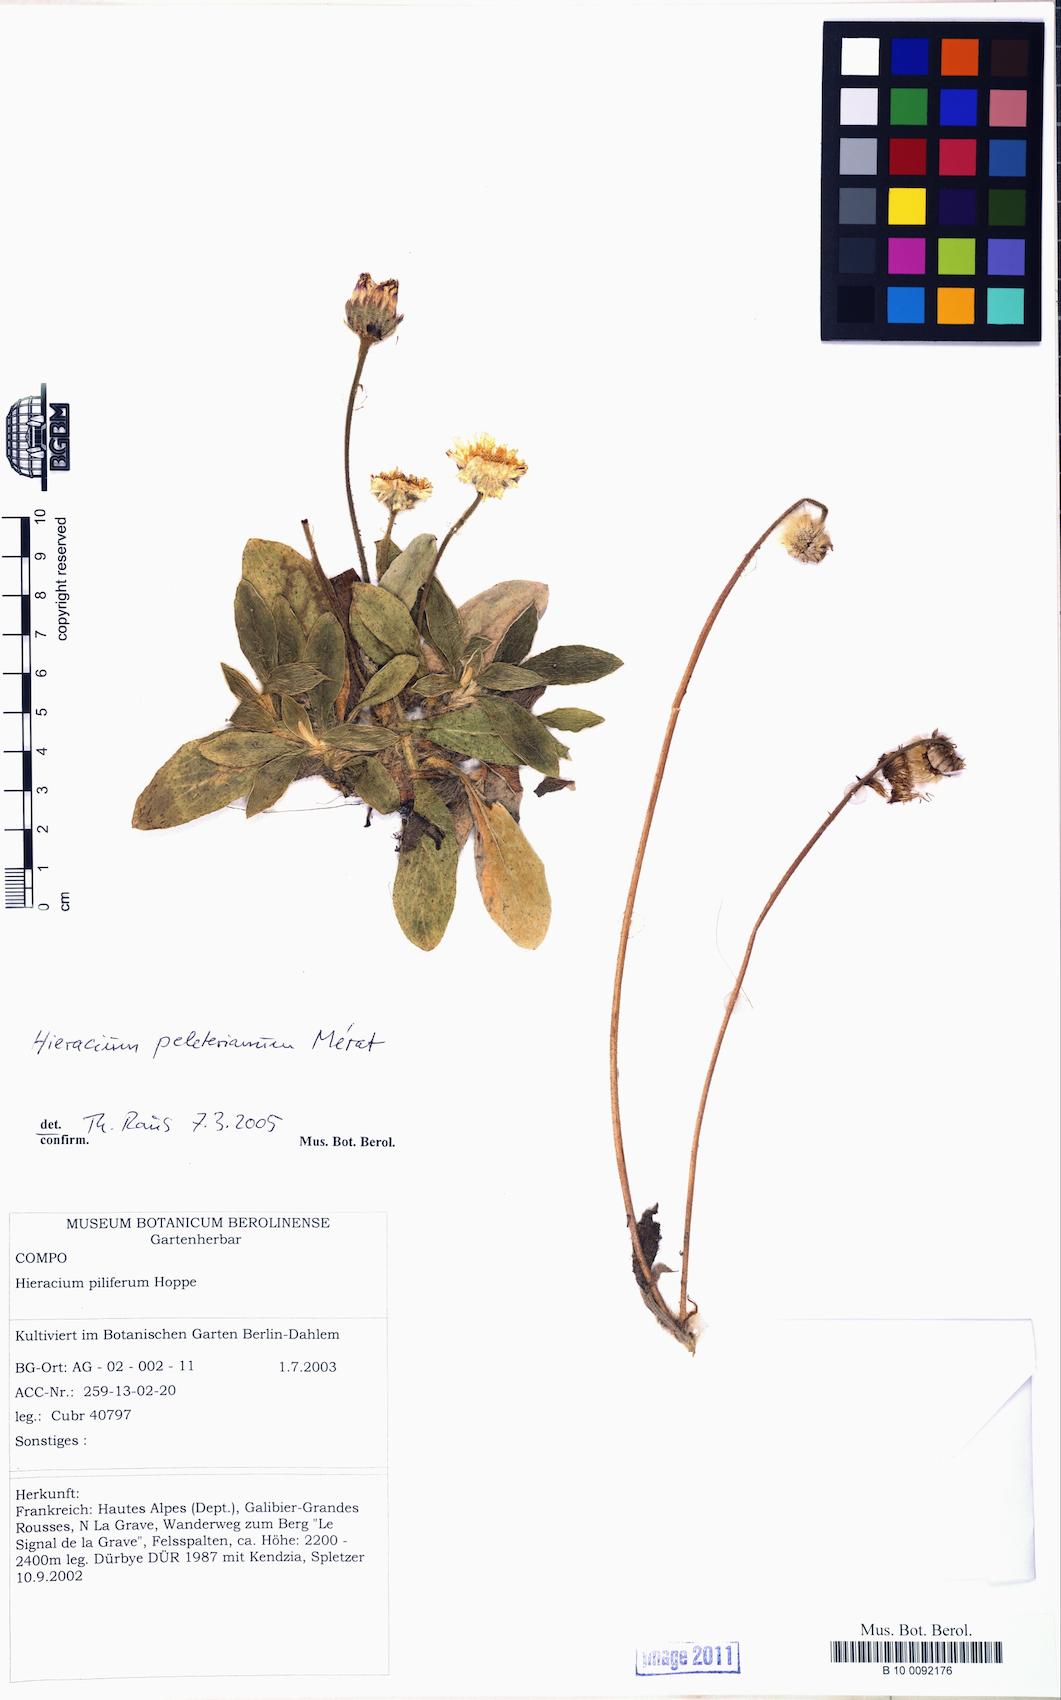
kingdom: Plantae
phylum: Tracheophyta
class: Magnoliopsida
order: Asterales
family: Asteraceae
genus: Pilosella
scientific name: Pilosella peleteriana
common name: Shaggy mouse-ear-hawkweed
